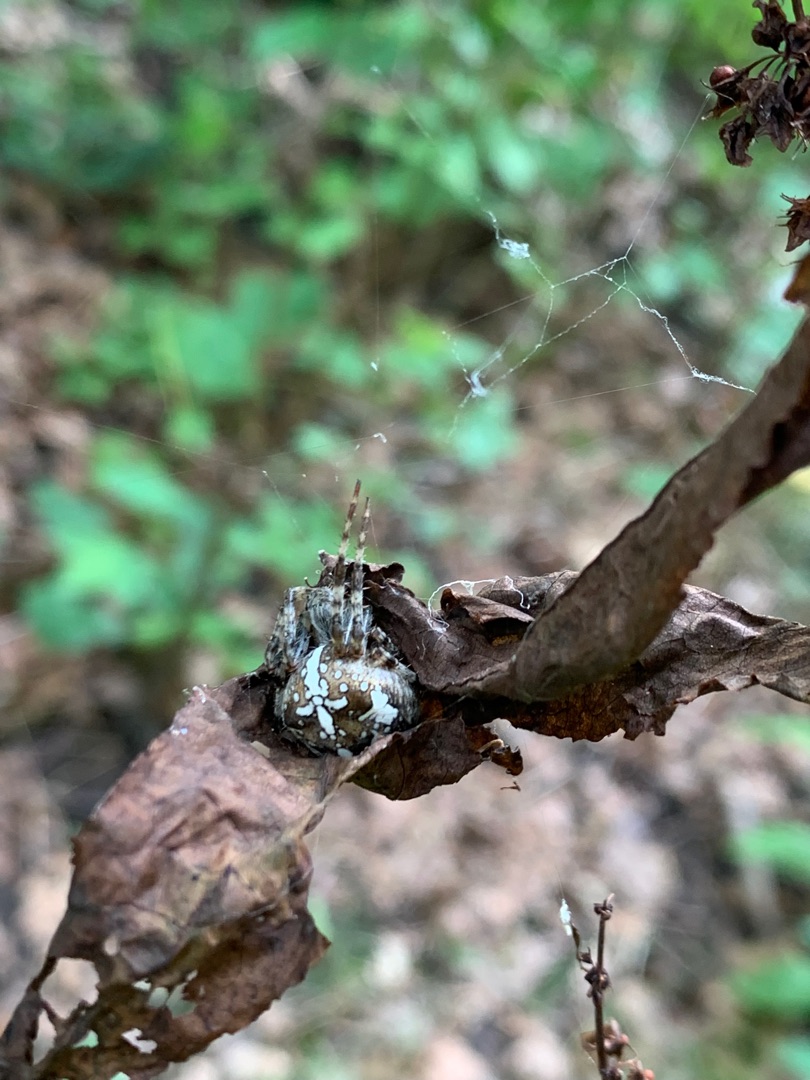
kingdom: Animalia
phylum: Arthropoda
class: Arachnida
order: Araneae
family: Araneidae
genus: Araneus
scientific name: Araneus diadematus
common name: Korsedderkop
